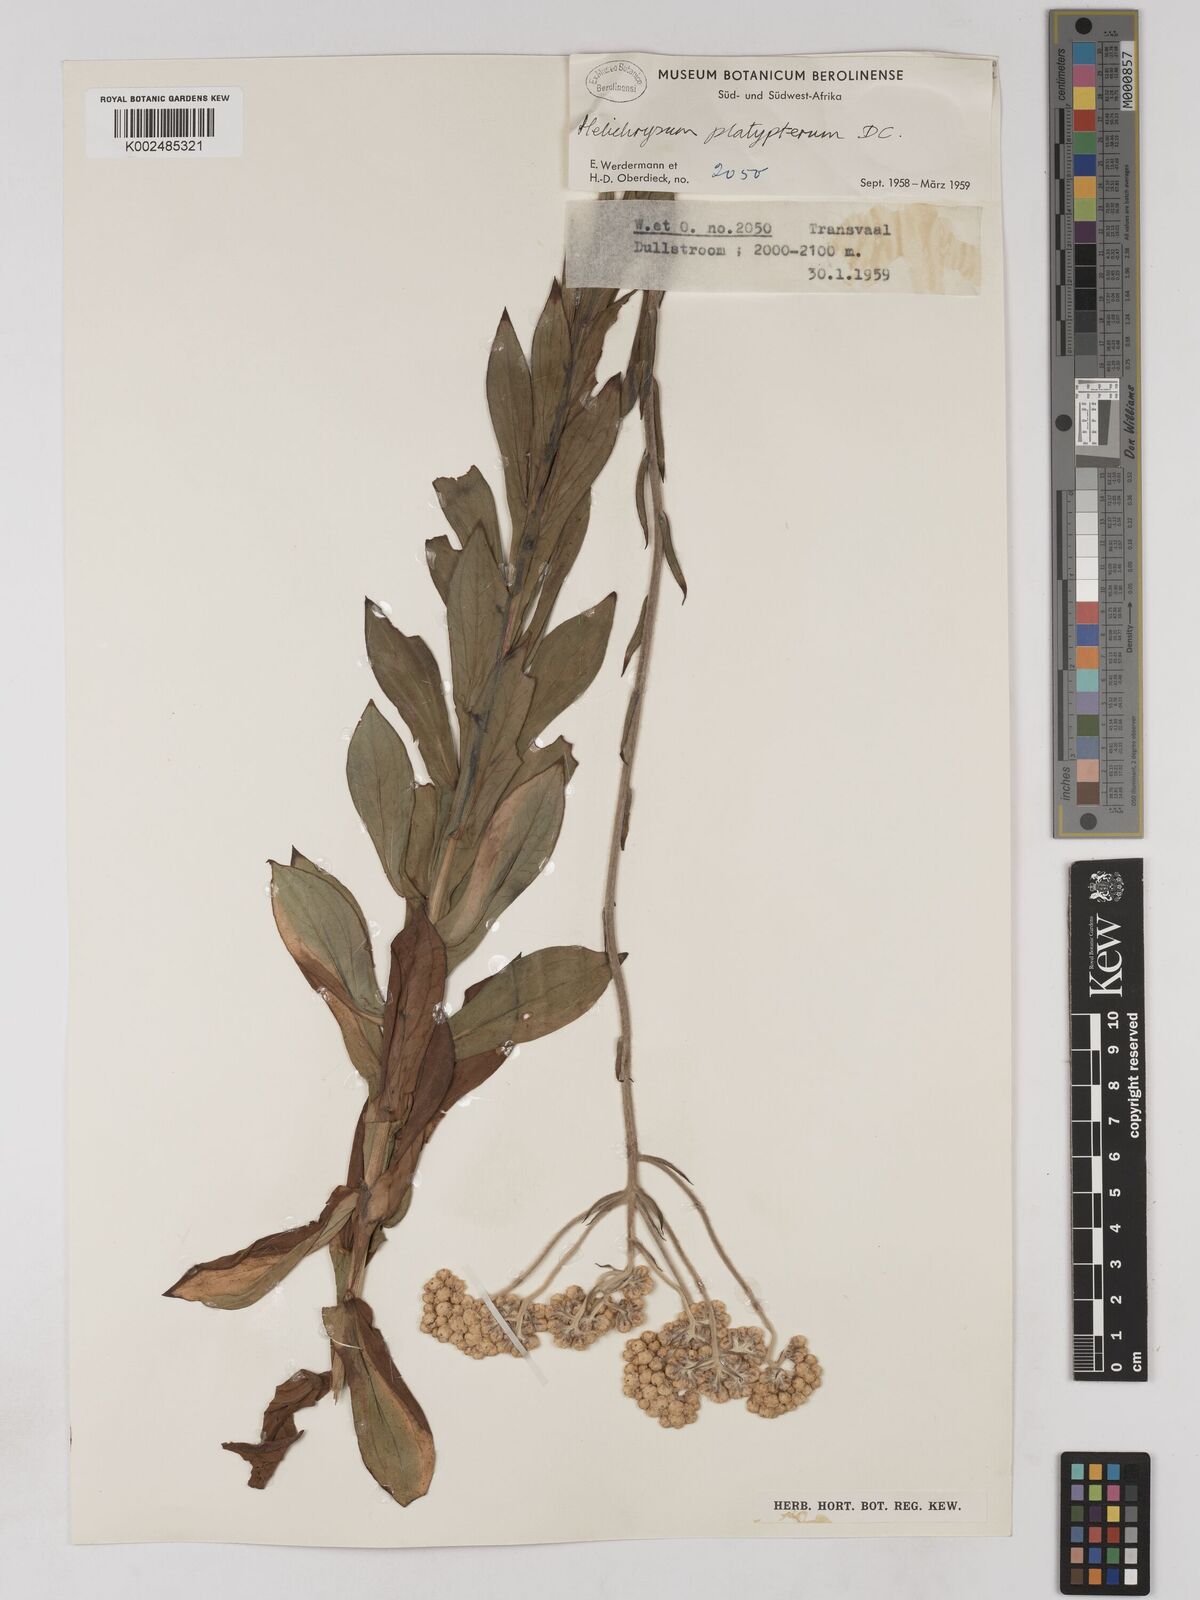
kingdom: Plantae
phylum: Tracheophyta
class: Magnoliopsida
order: Asterales
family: Asteraceae
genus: Helichrysum
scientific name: Helichrysum platypterum
